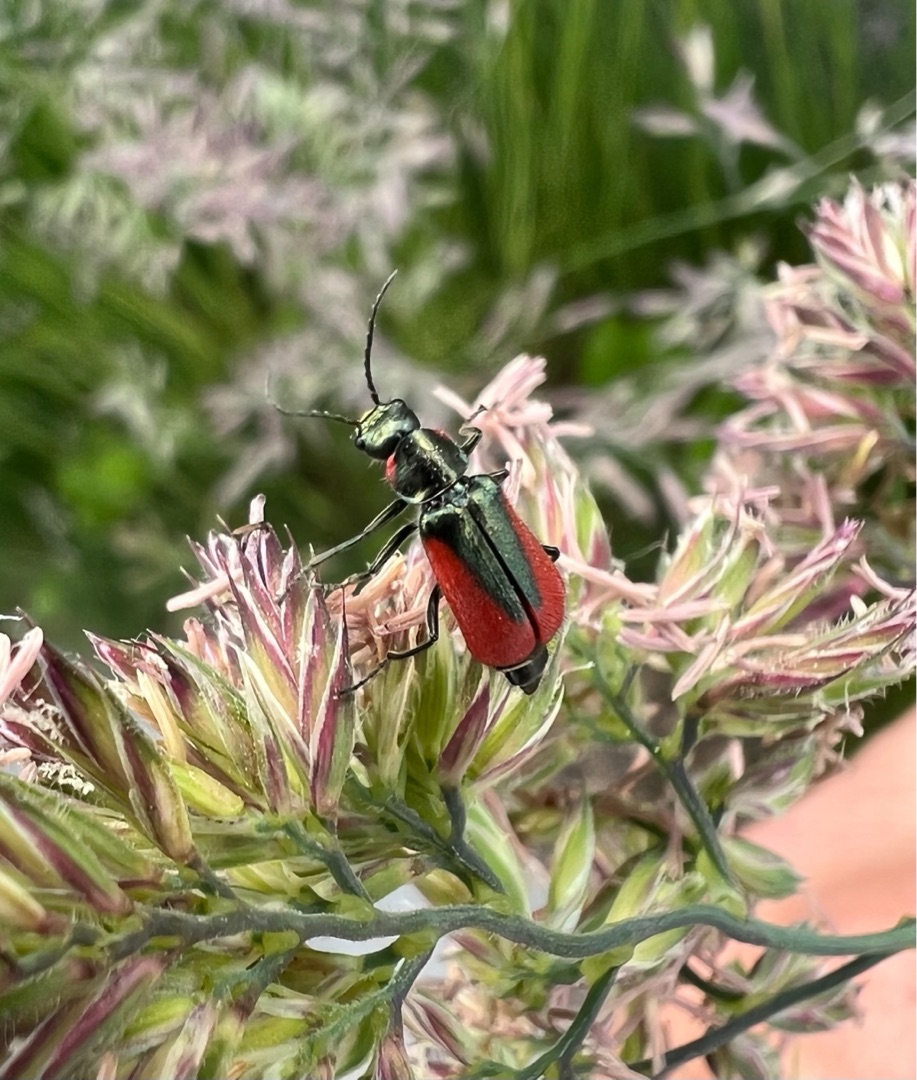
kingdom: Animalia
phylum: Arthropoda
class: Insecta
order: Coleoptera
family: Melyridae
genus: Malachius
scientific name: Malachius aeneus
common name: Stor malakitbille
